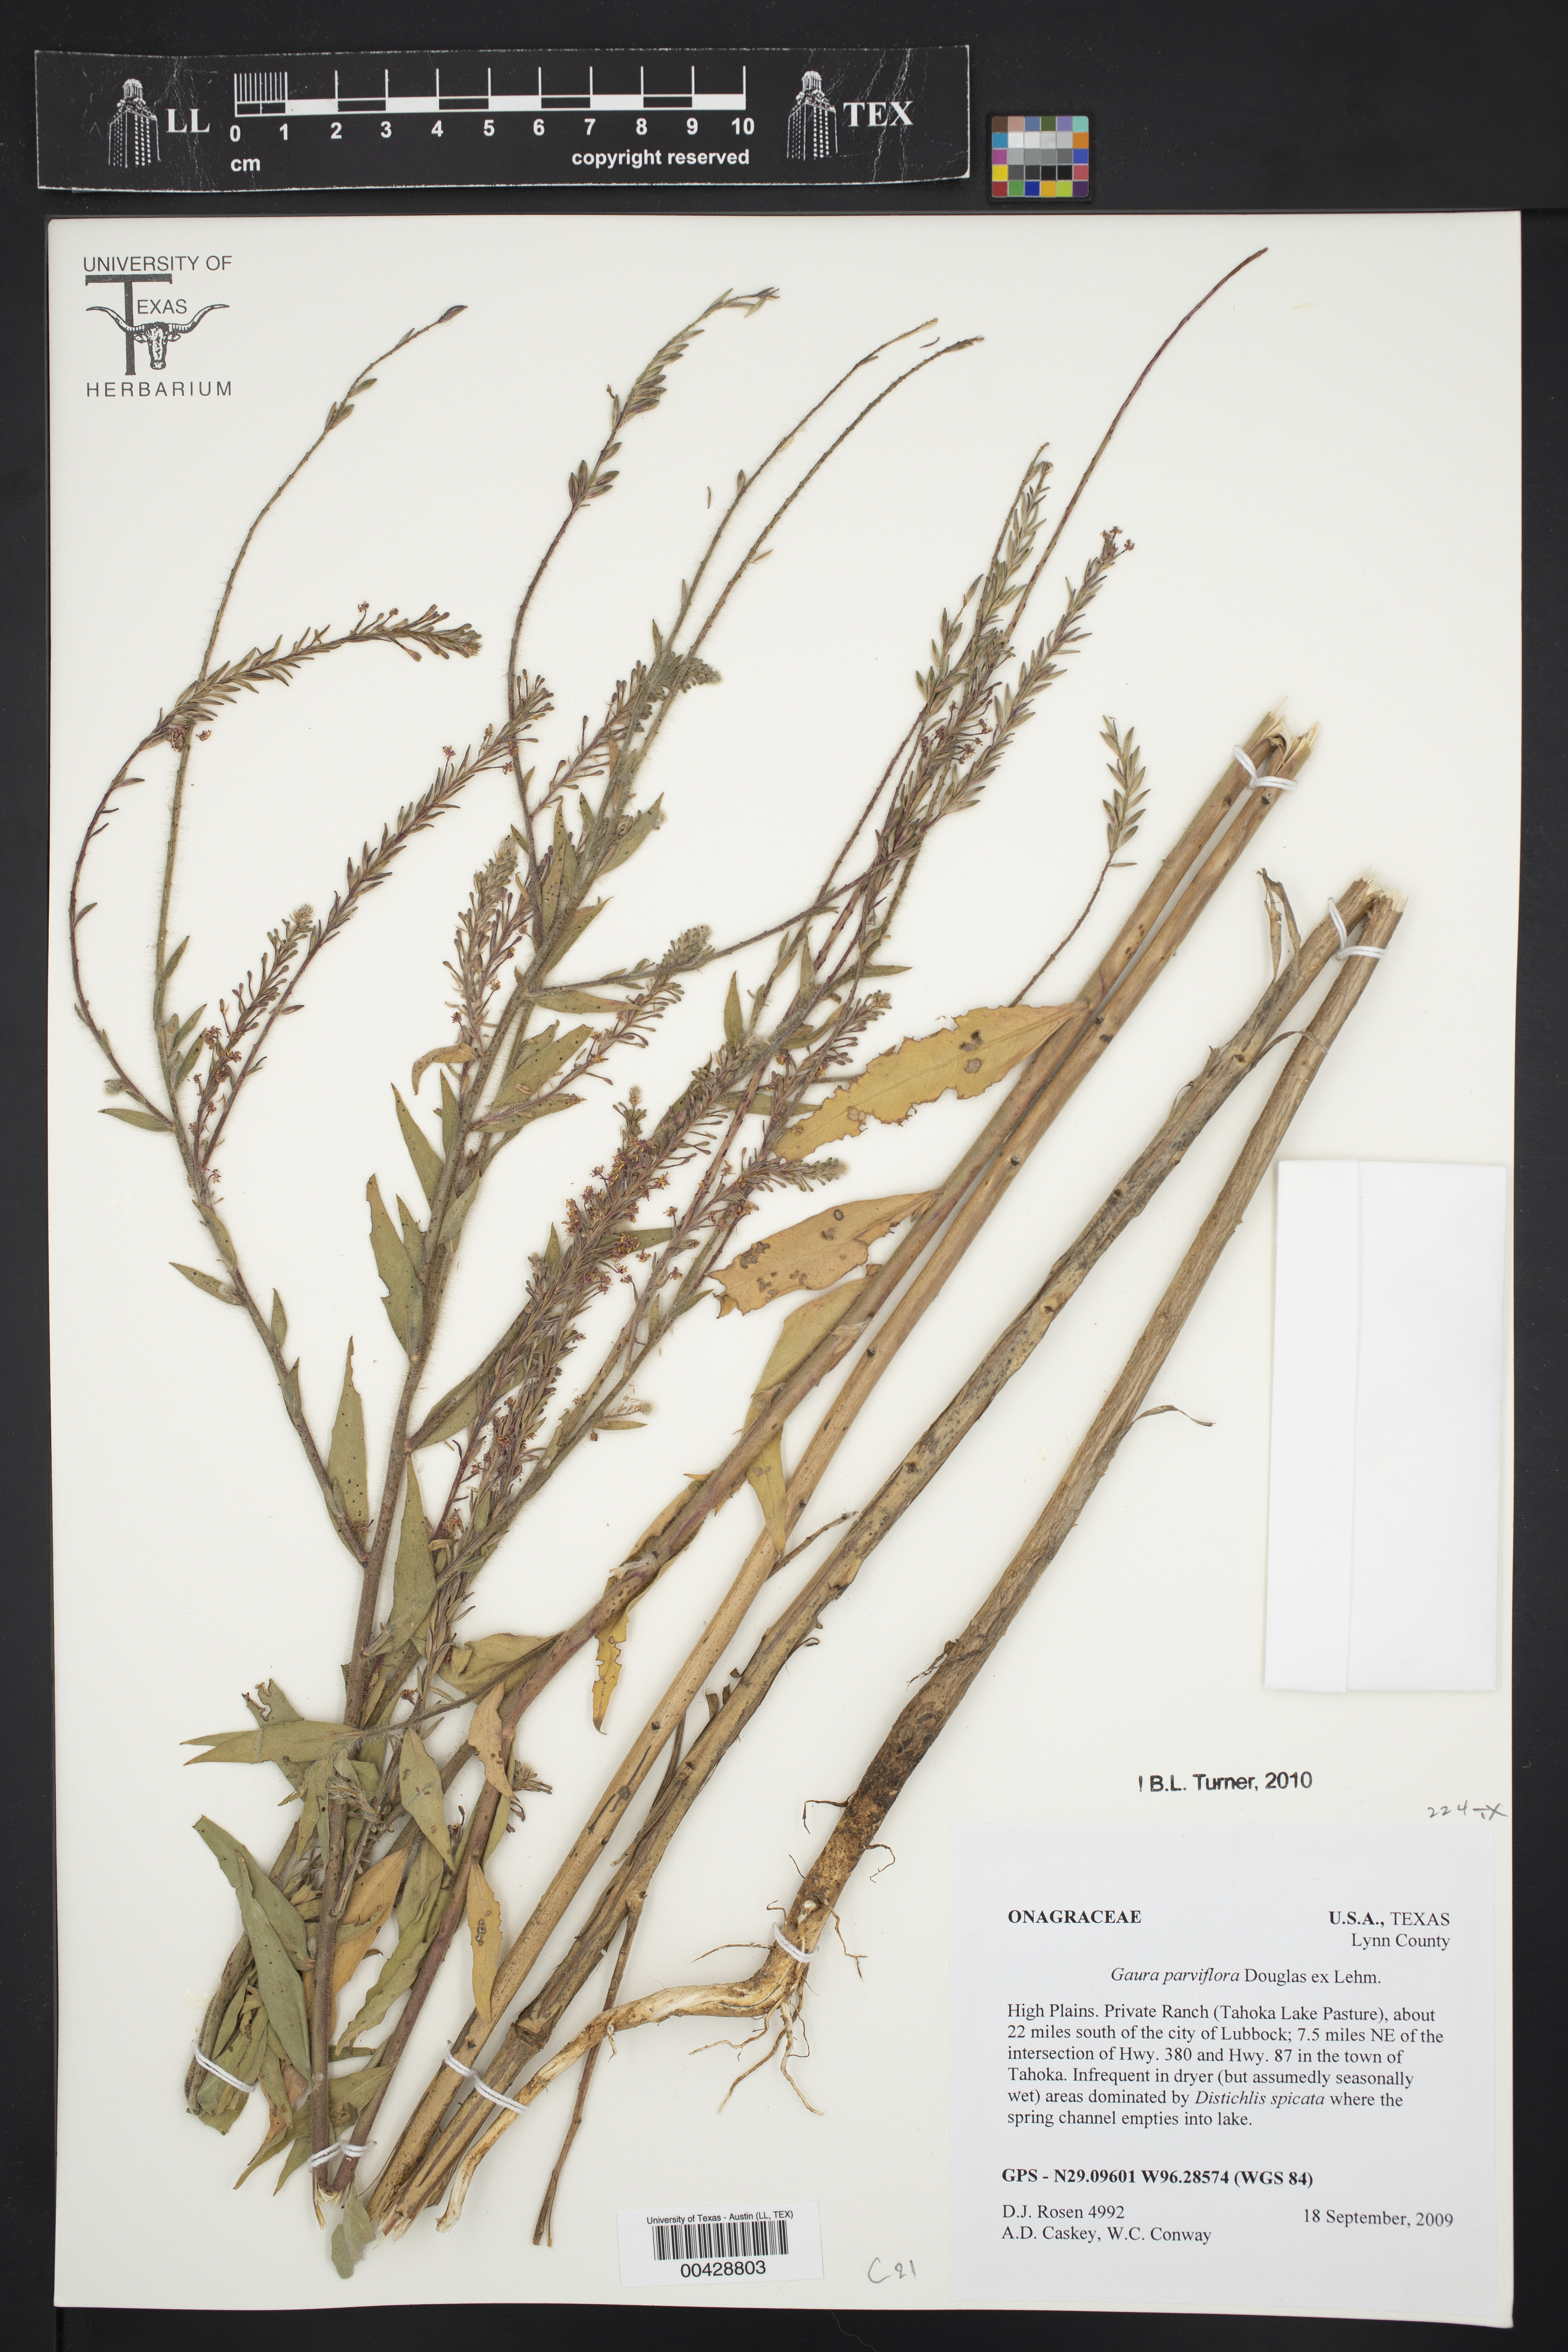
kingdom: Plantae
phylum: Tracheophyta
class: Magnoliopsida
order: Myrtales
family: Onagraceae
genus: Oenothera
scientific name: Oenothera curtiflora
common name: Velvetweed
